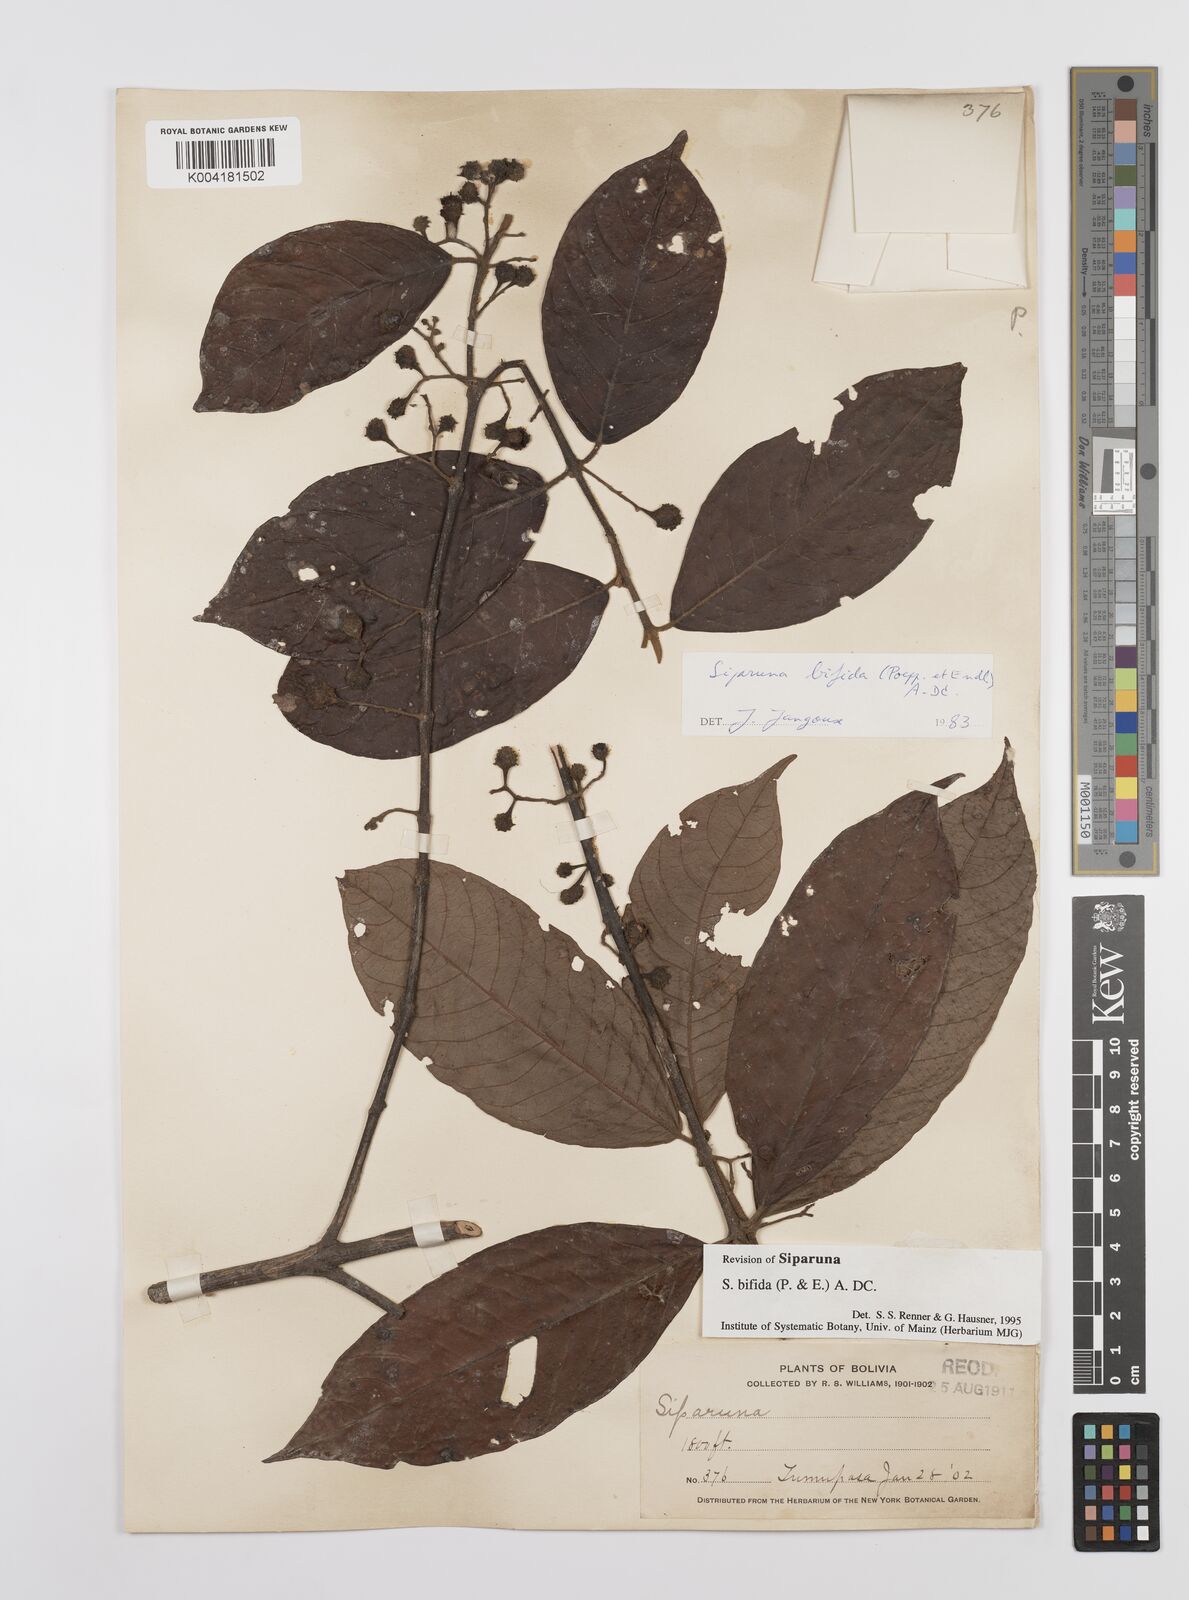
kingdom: Plantae
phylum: Tracheophyta
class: Magnoliopsida
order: Laurales
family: Siparunaceae
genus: Siparuna
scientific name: Siparuna bifida
